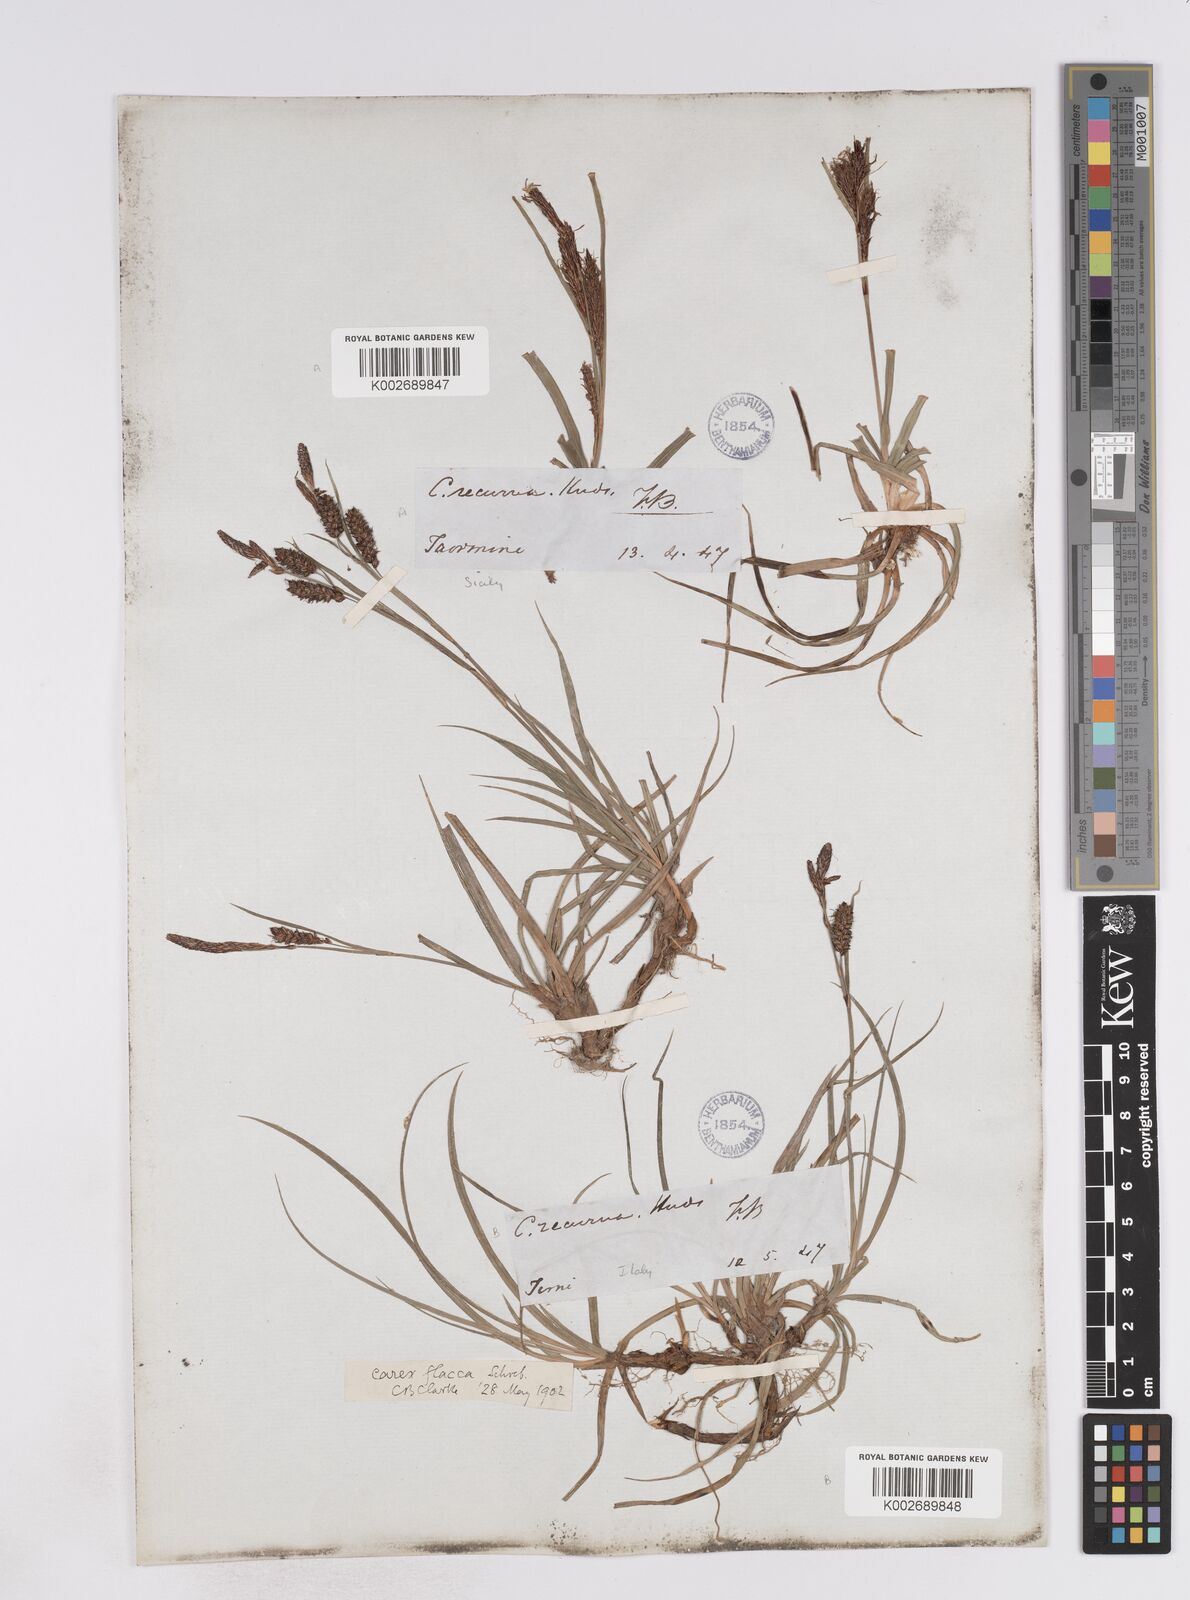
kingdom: Plantae
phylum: Tracheophyta
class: Liliopsida
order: Poales
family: Cyperaceae
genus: Carex
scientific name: Carex flacca
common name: Glaucous sedge
